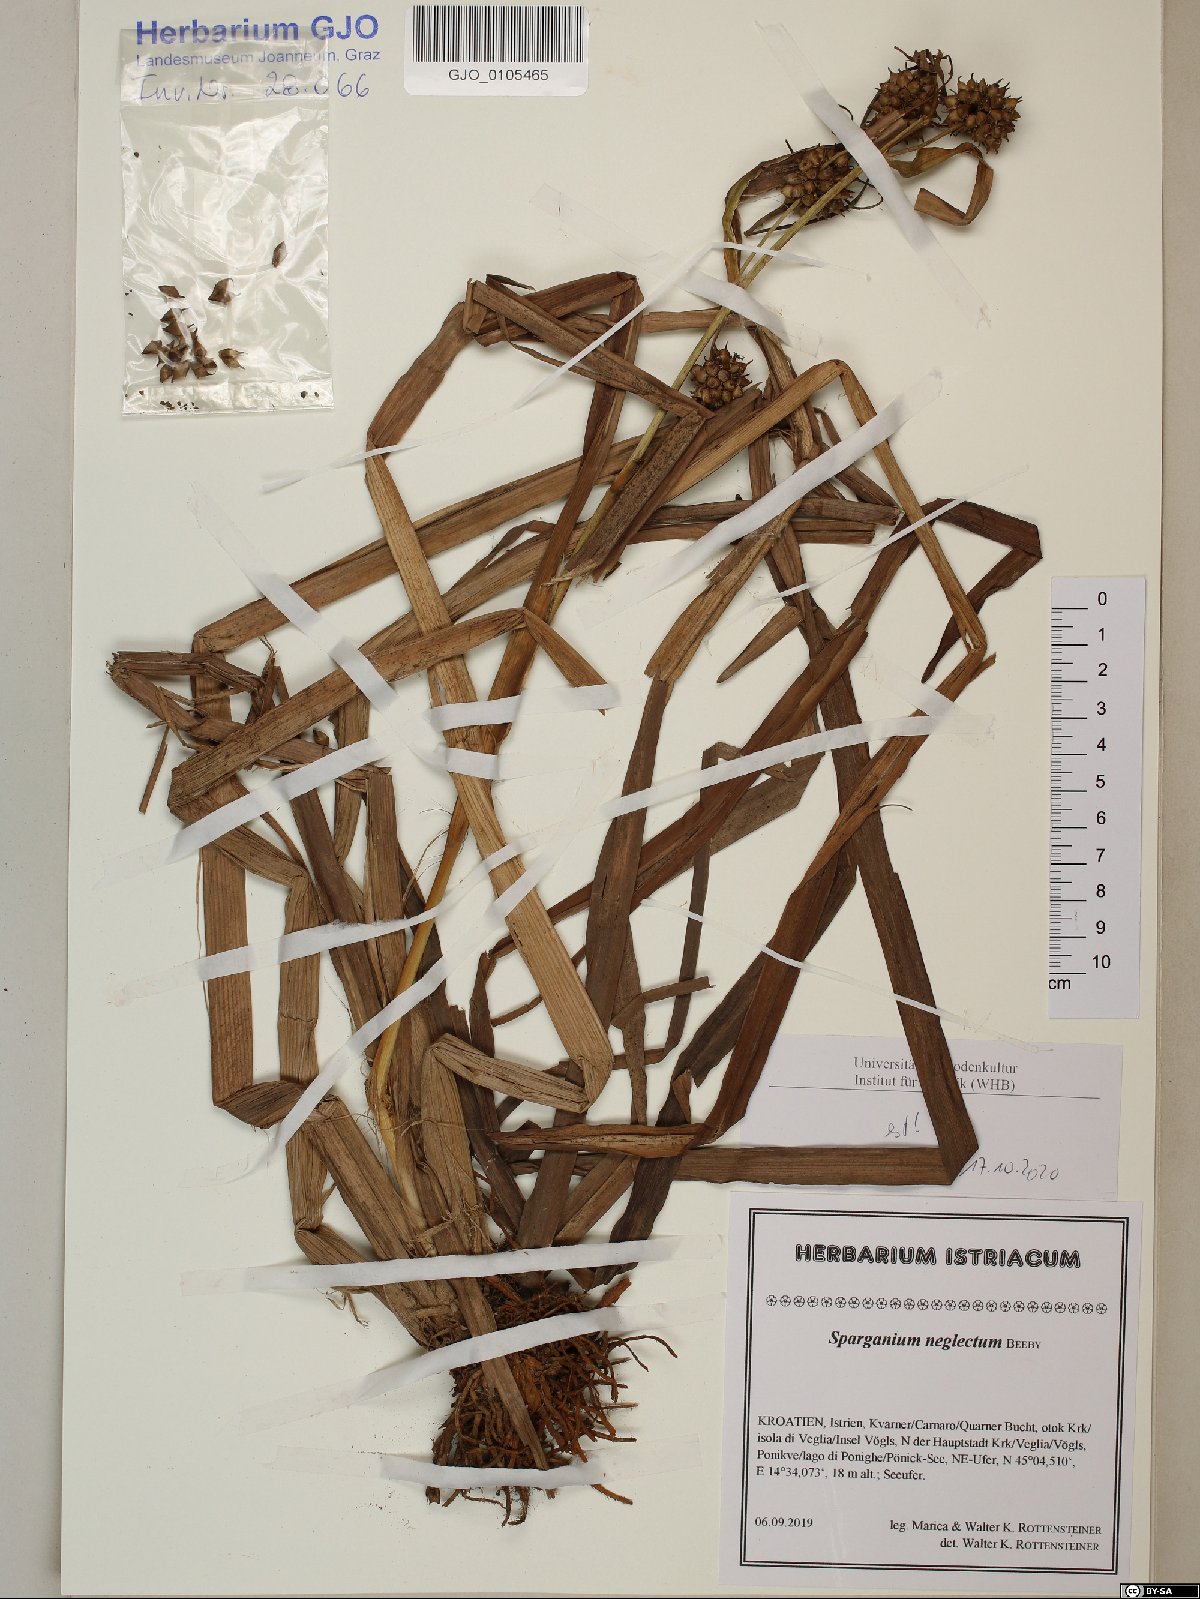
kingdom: Plantae
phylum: Tracheophyta
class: Liliopsida
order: Poales
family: Typhaceae
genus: Sparganium
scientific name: Sparganium erectum
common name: Branched bur-reed
